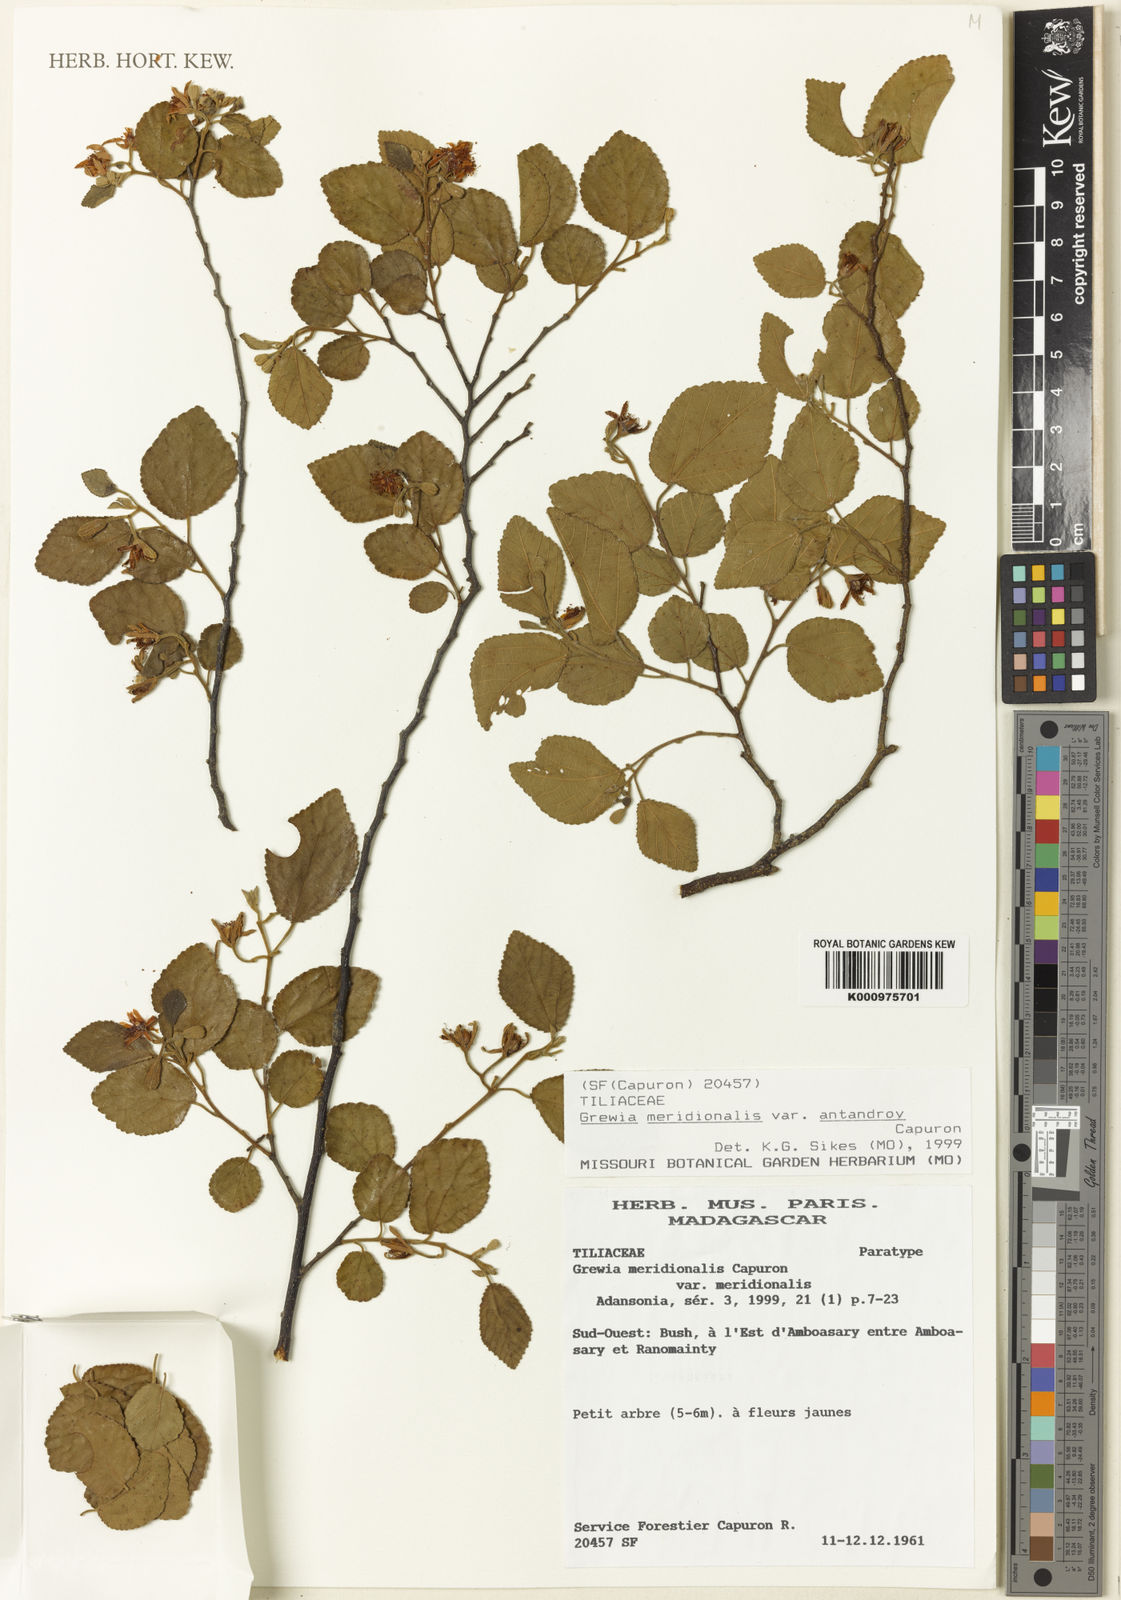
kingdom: Plantae
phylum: Tracheophyta
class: Magnoliopsida
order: Malvales
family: Malvaceae
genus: Grewia
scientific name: Grewia meridionalis
